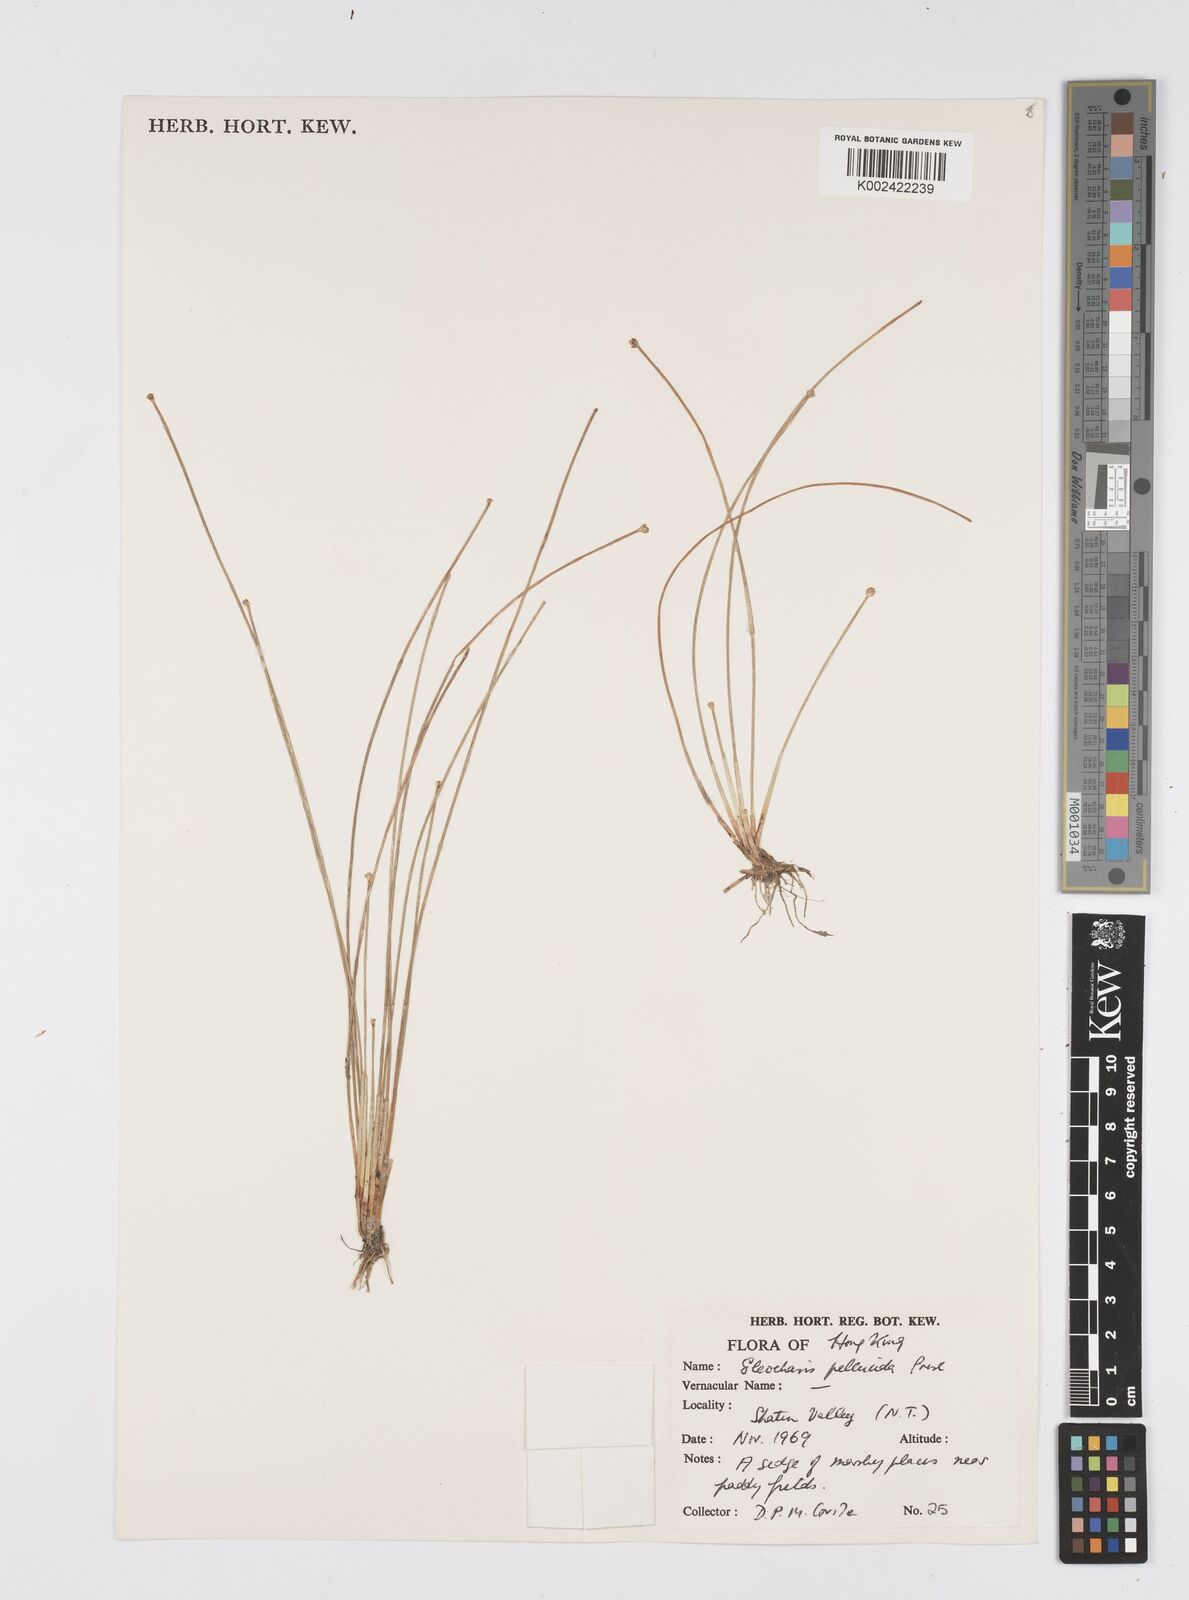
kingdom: Plantae
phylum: Tracheophyta
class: Liliopsida
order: Poales
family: Cyperaceae
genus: Eleocharis
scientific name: Eleocharis pellucida
